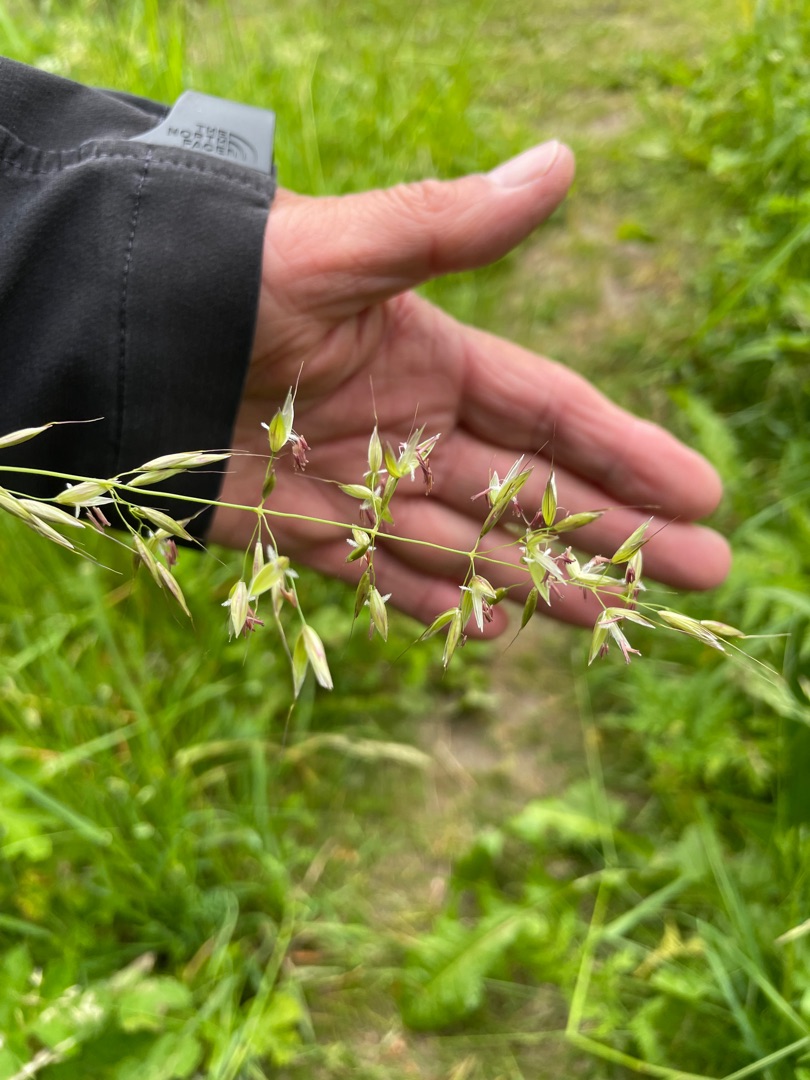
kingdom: Plantae
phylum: Tracheophyta
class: Liliopsida
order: Poales
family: Poaceae
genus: Arrhenatherum
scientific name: Arrhenatherum elatius
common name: Draphavre
